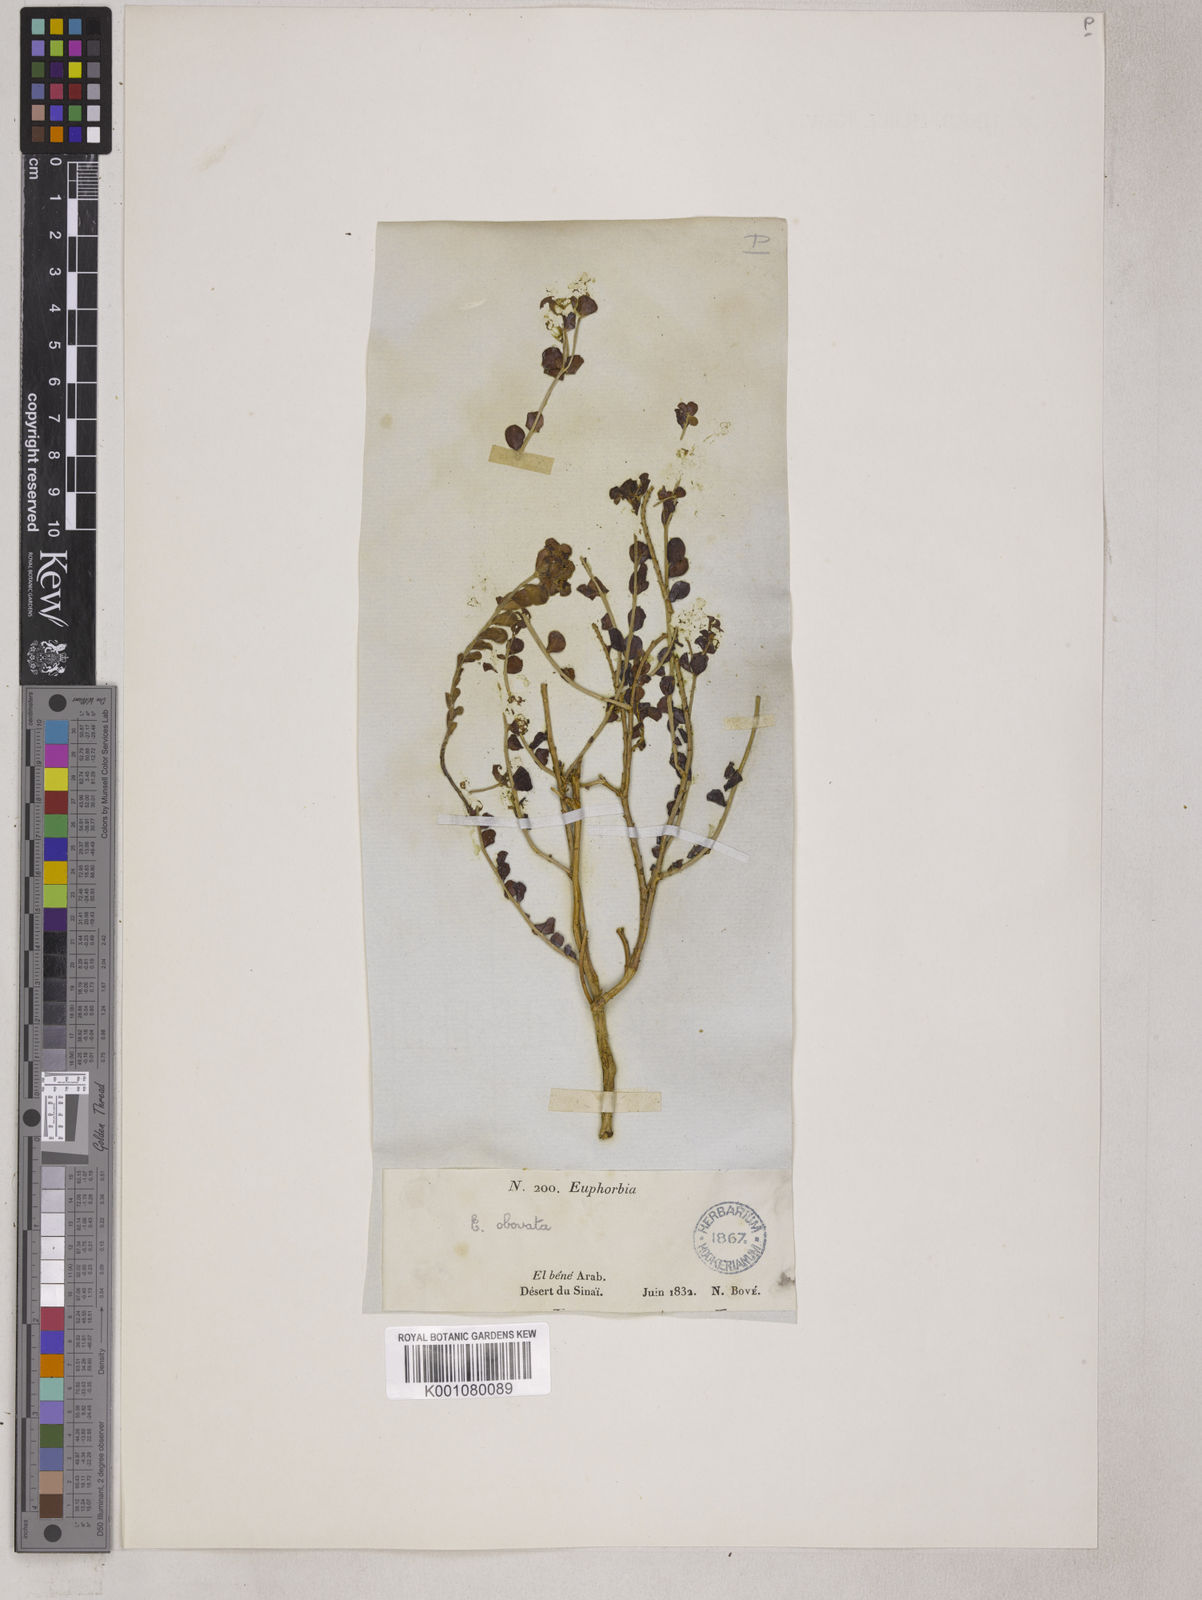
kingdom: Plantae
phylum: Tracheophyta
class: Magnoliopsida
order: Malpighiales
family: Euphorbiaceae
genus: Euphorbia
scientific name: Euphorbia obovata
